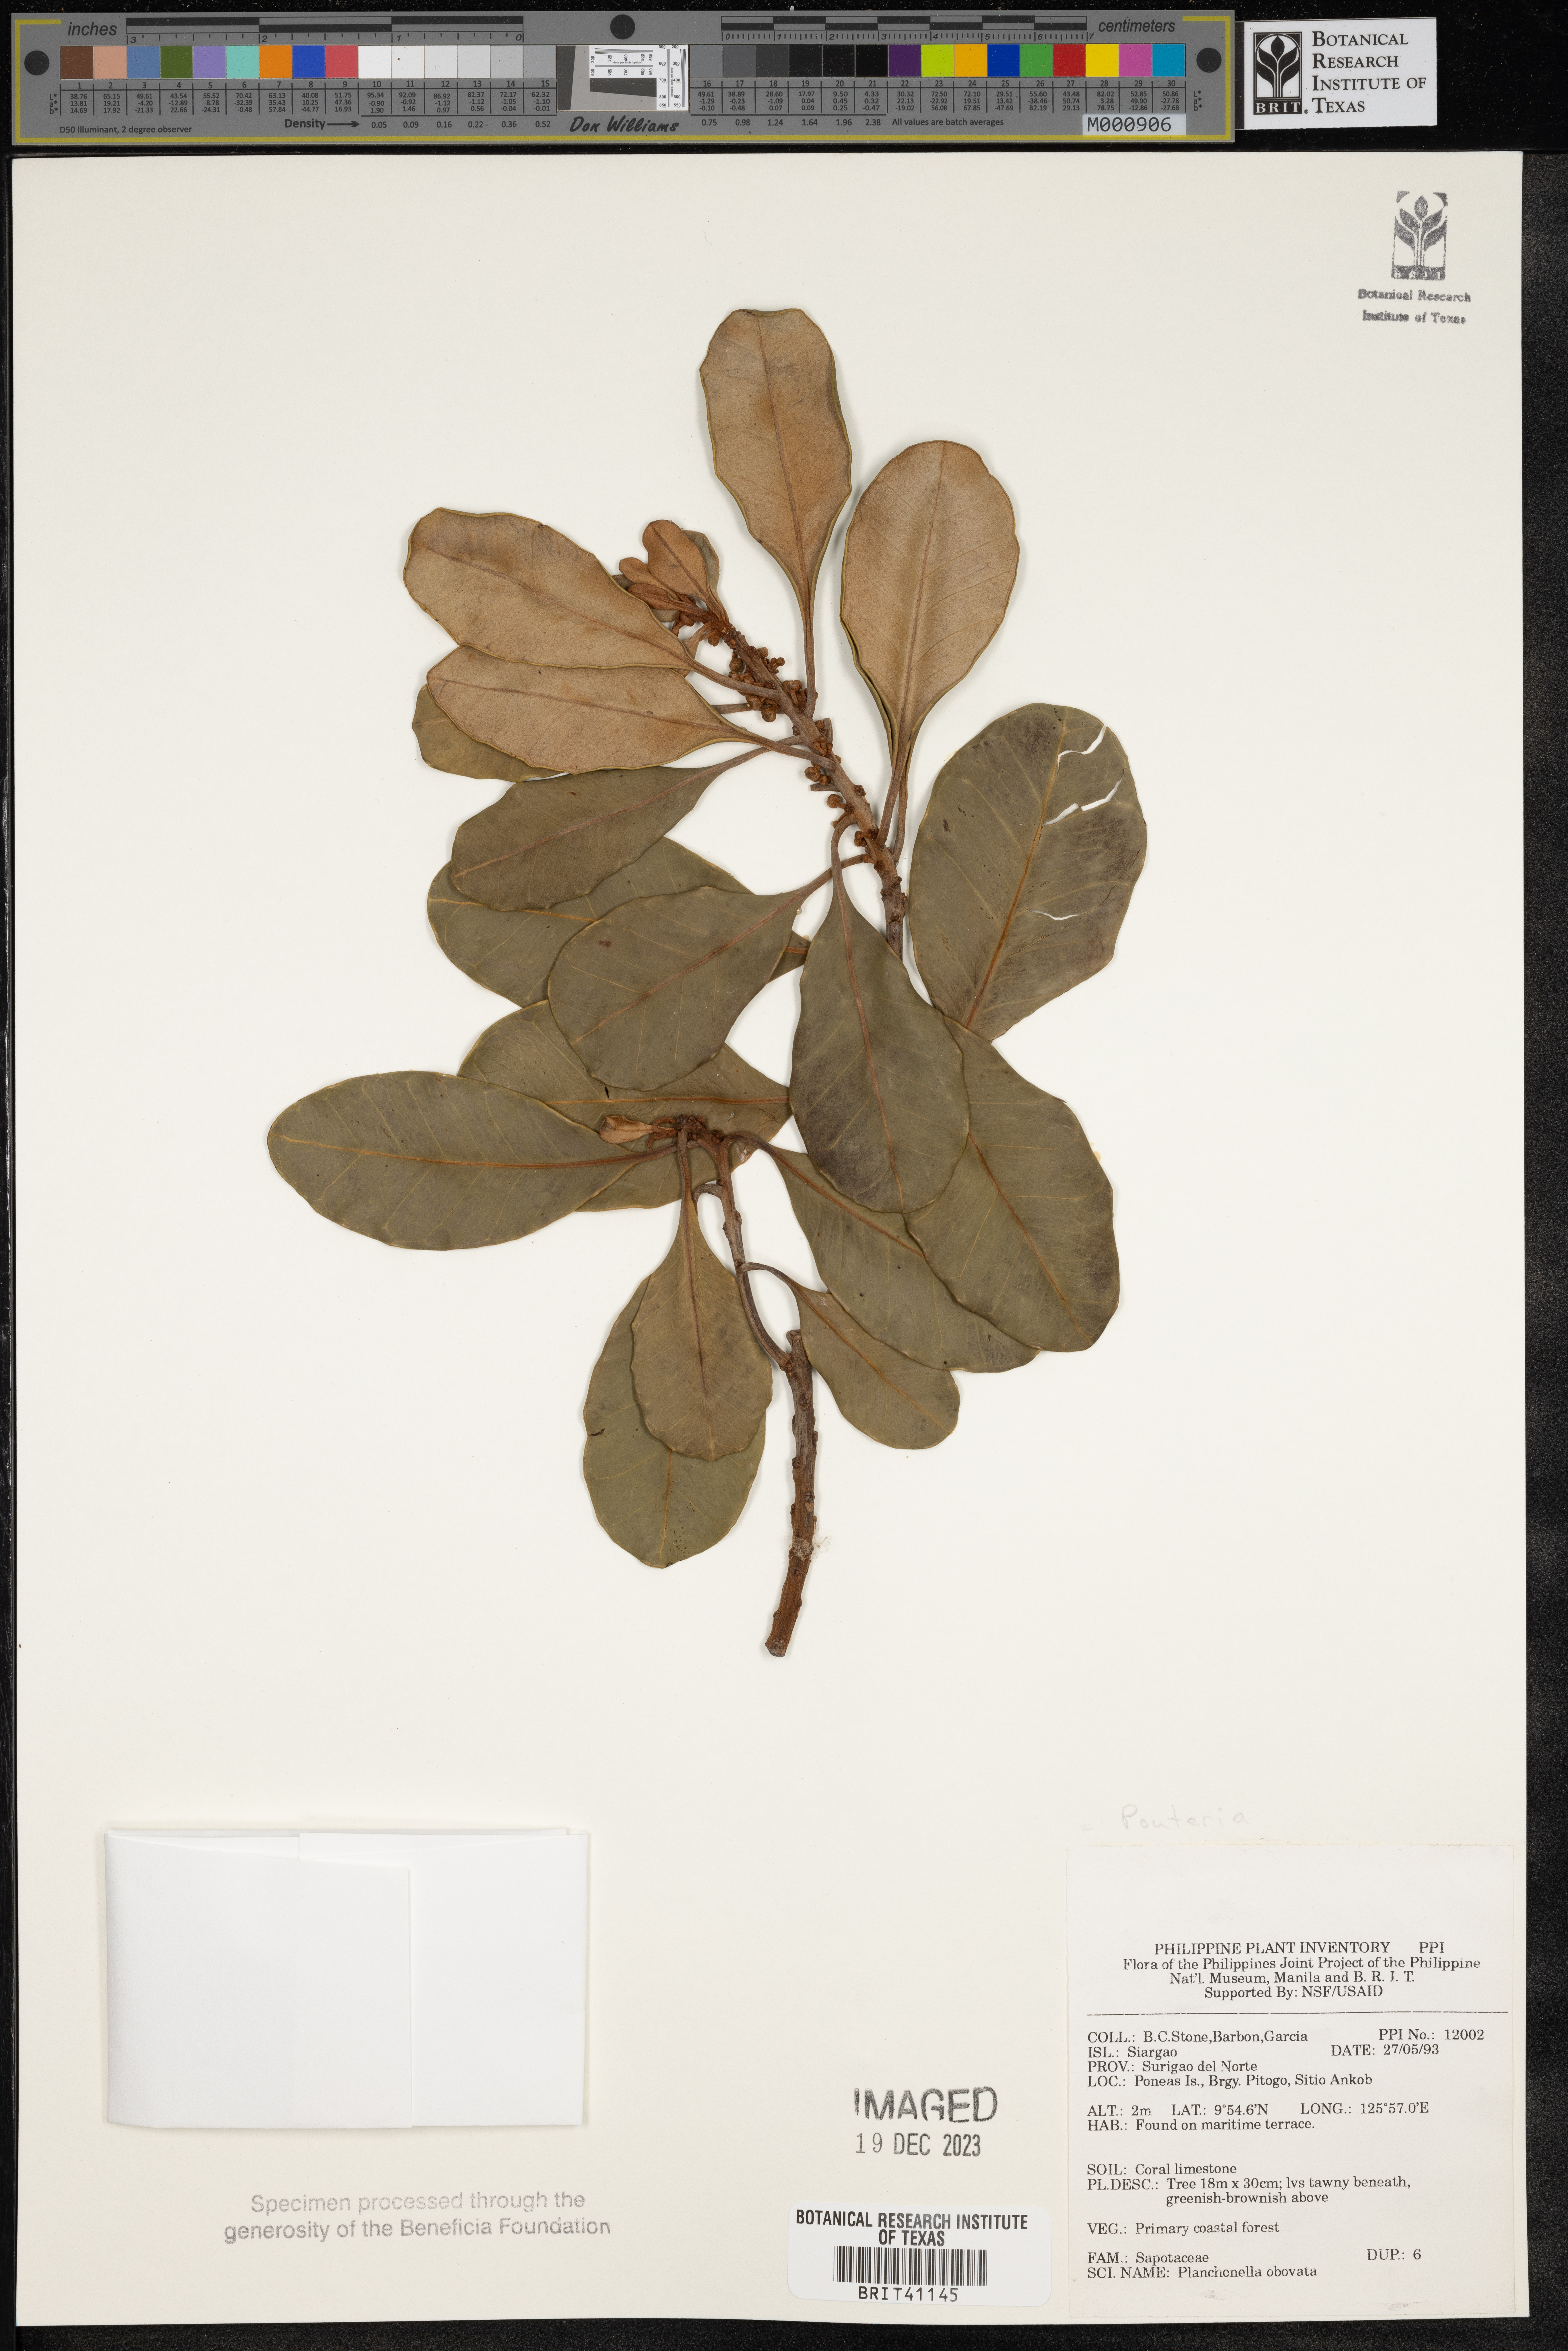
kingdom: Plantae
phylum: Tracheophyta
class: Magnoliopsida
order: Ericales
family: Sapotaceae
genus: Planchonella
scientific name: Planchonella obovata
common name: Black-ash
